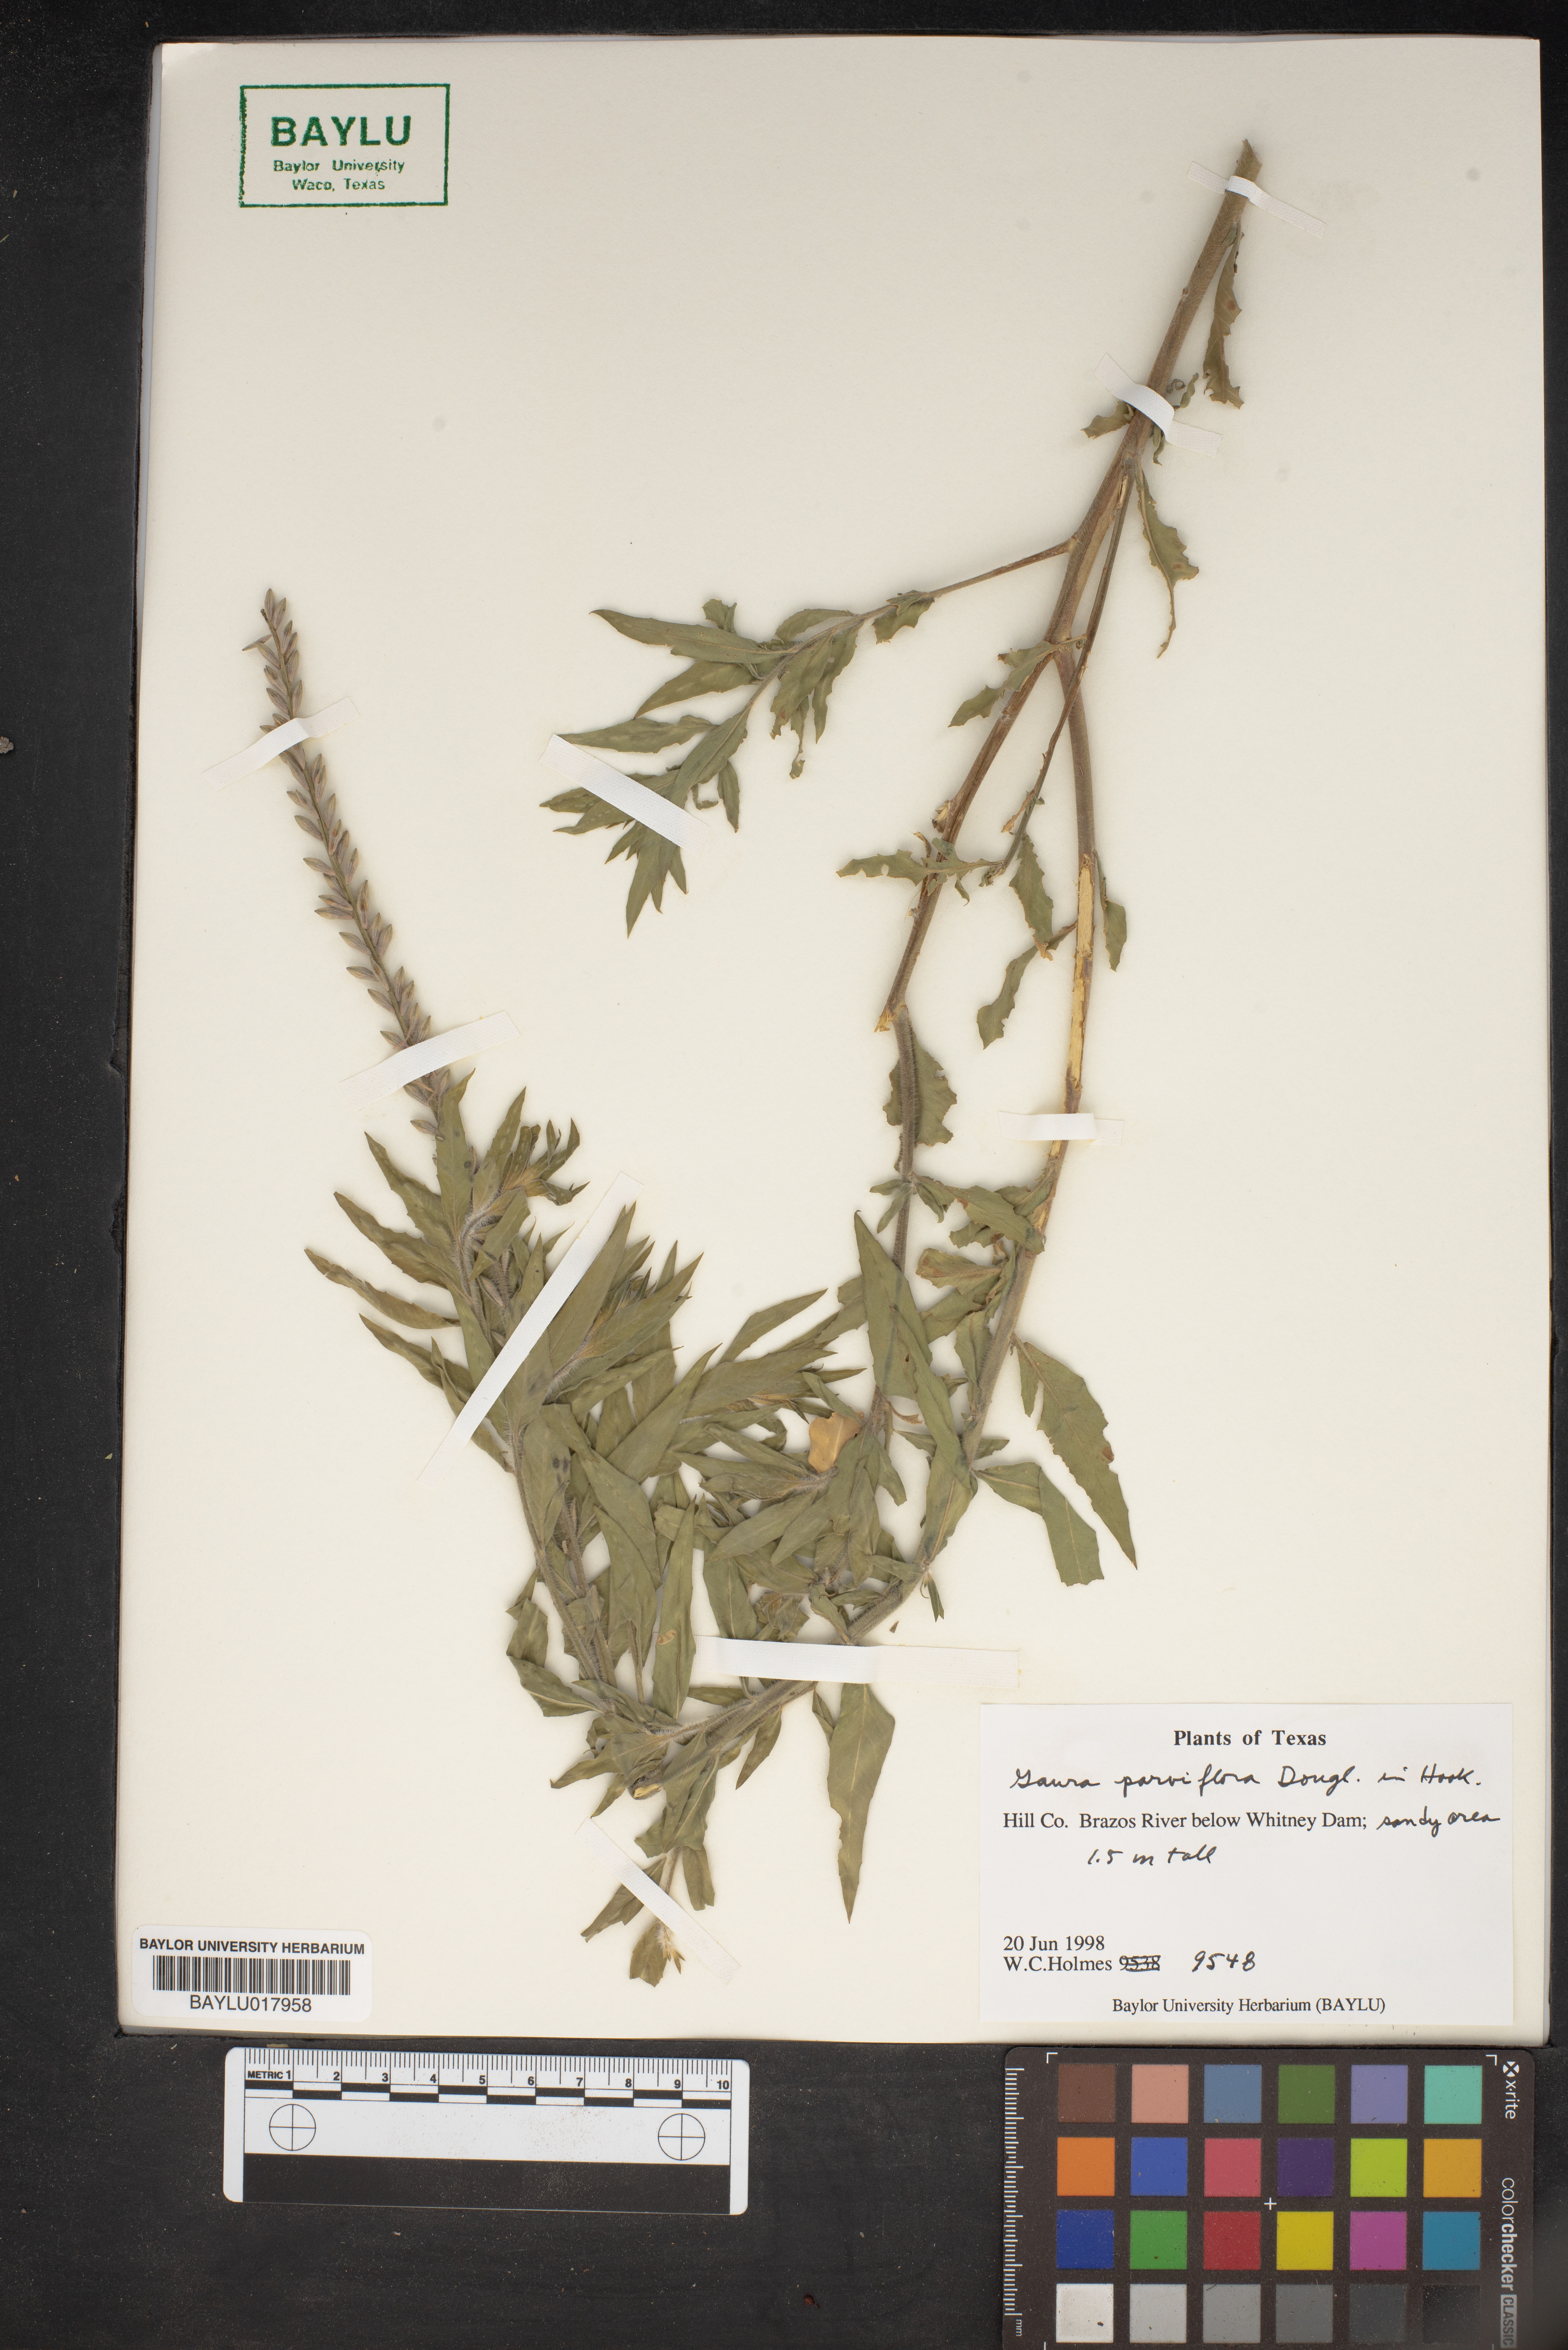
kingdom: Plantae
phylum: Tracheophyta
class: Magnoliopsida
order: Myrtales
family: Onagraceae
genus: Oenothera
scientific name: Oenothera curtiflora
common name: Velvetweed
